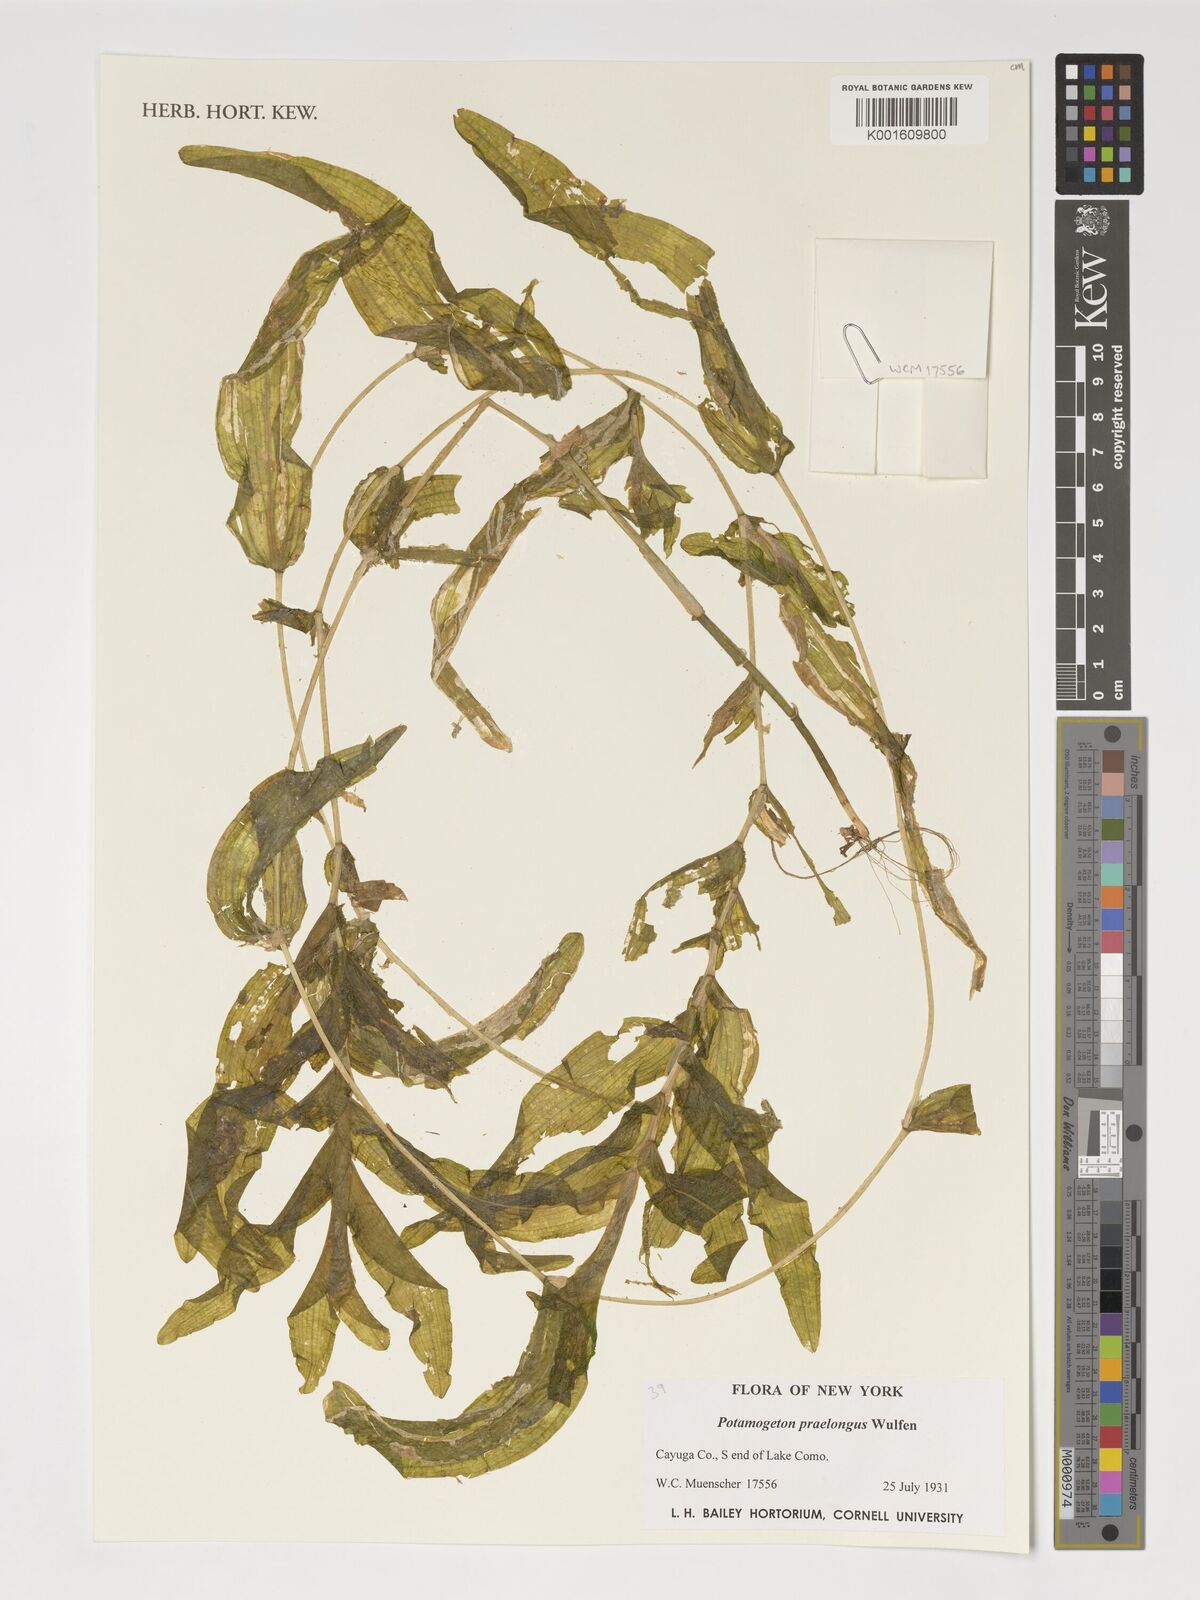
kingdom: Plantae
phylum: Tracheophyta
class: Liliopsida
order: Alismatales
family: Potamogetonaceae
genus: Potamogeton
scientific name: Potamogeton praelongus
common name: Long-stalked pondweed
